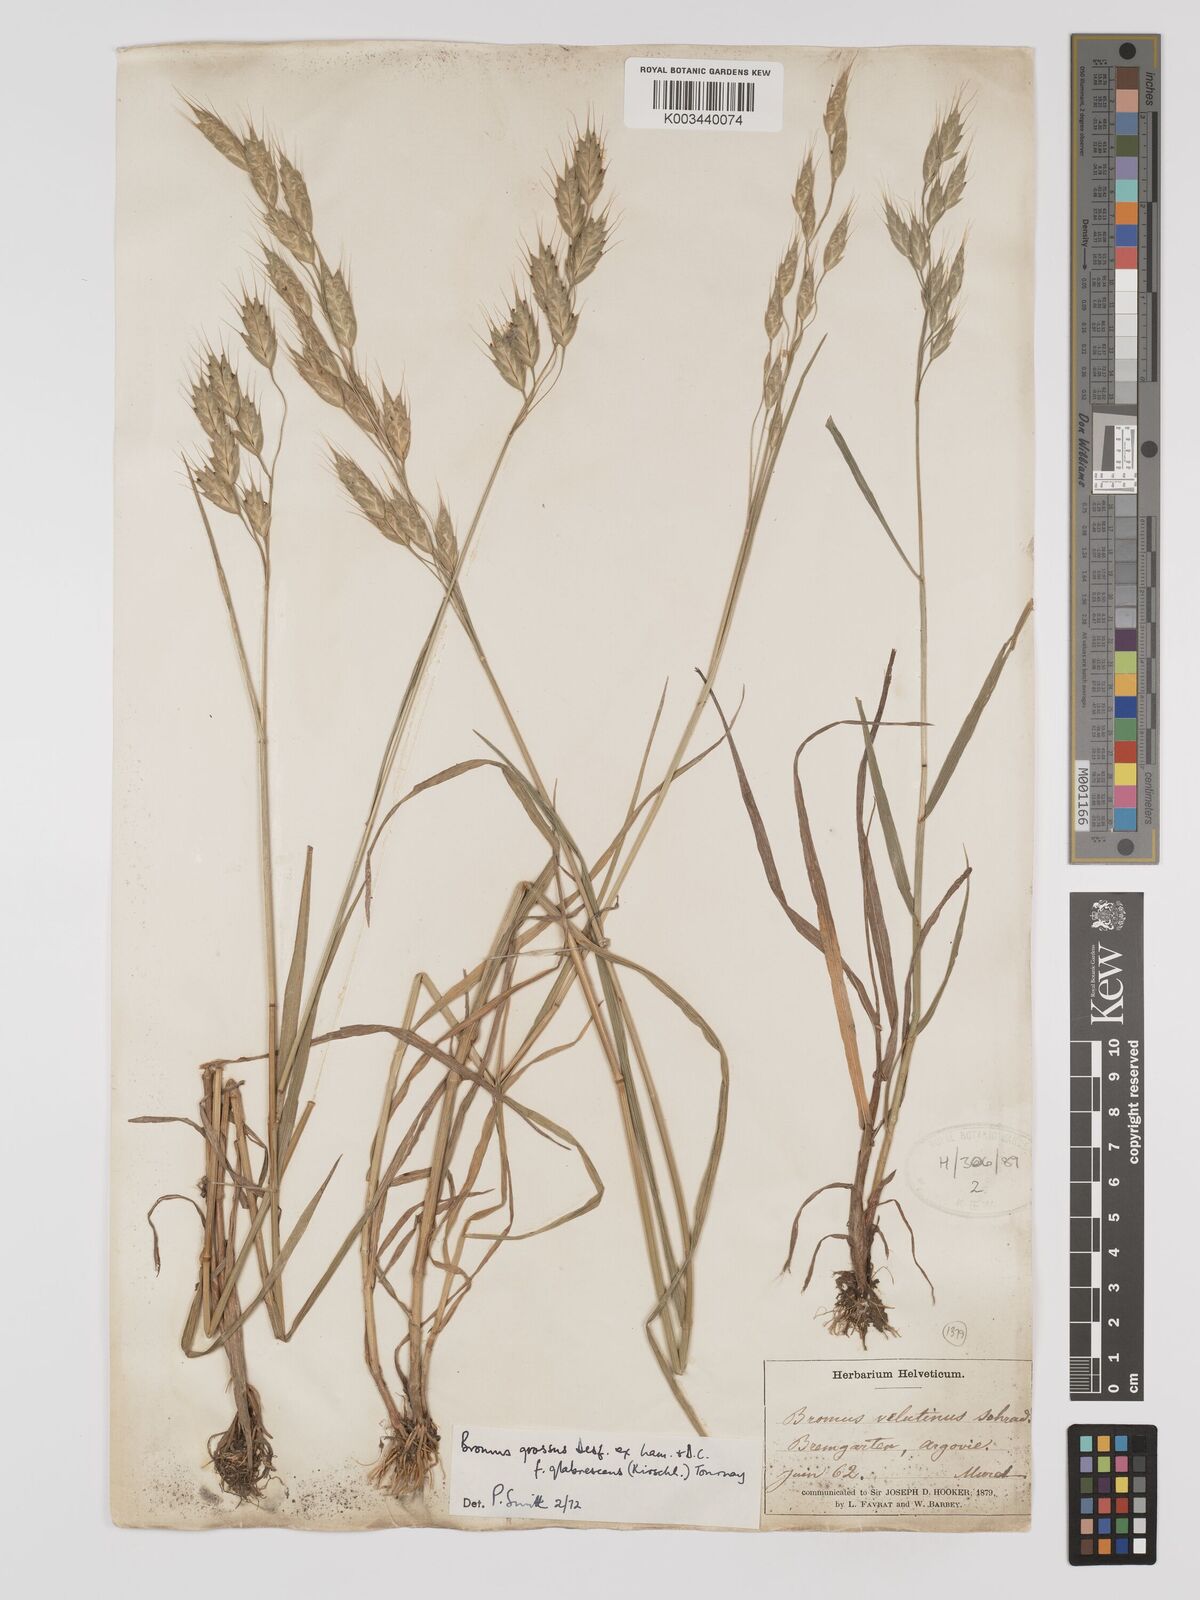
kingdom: Plantae
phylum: Tracheophyta
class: Liliopsida
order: Poales
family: Poaceae
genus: Bromus
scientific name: Bromus grossus
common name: Whiskered brome
